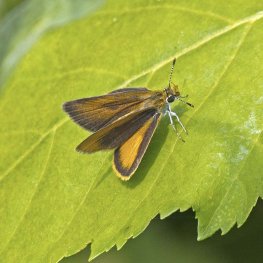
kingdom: Animalia
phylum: Arthropoda
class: Insecta
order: Lepidoptera
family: Hesperiidae
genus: Ancyloxypha
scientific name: Ancyloxypha numitor
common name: Least Skipper
